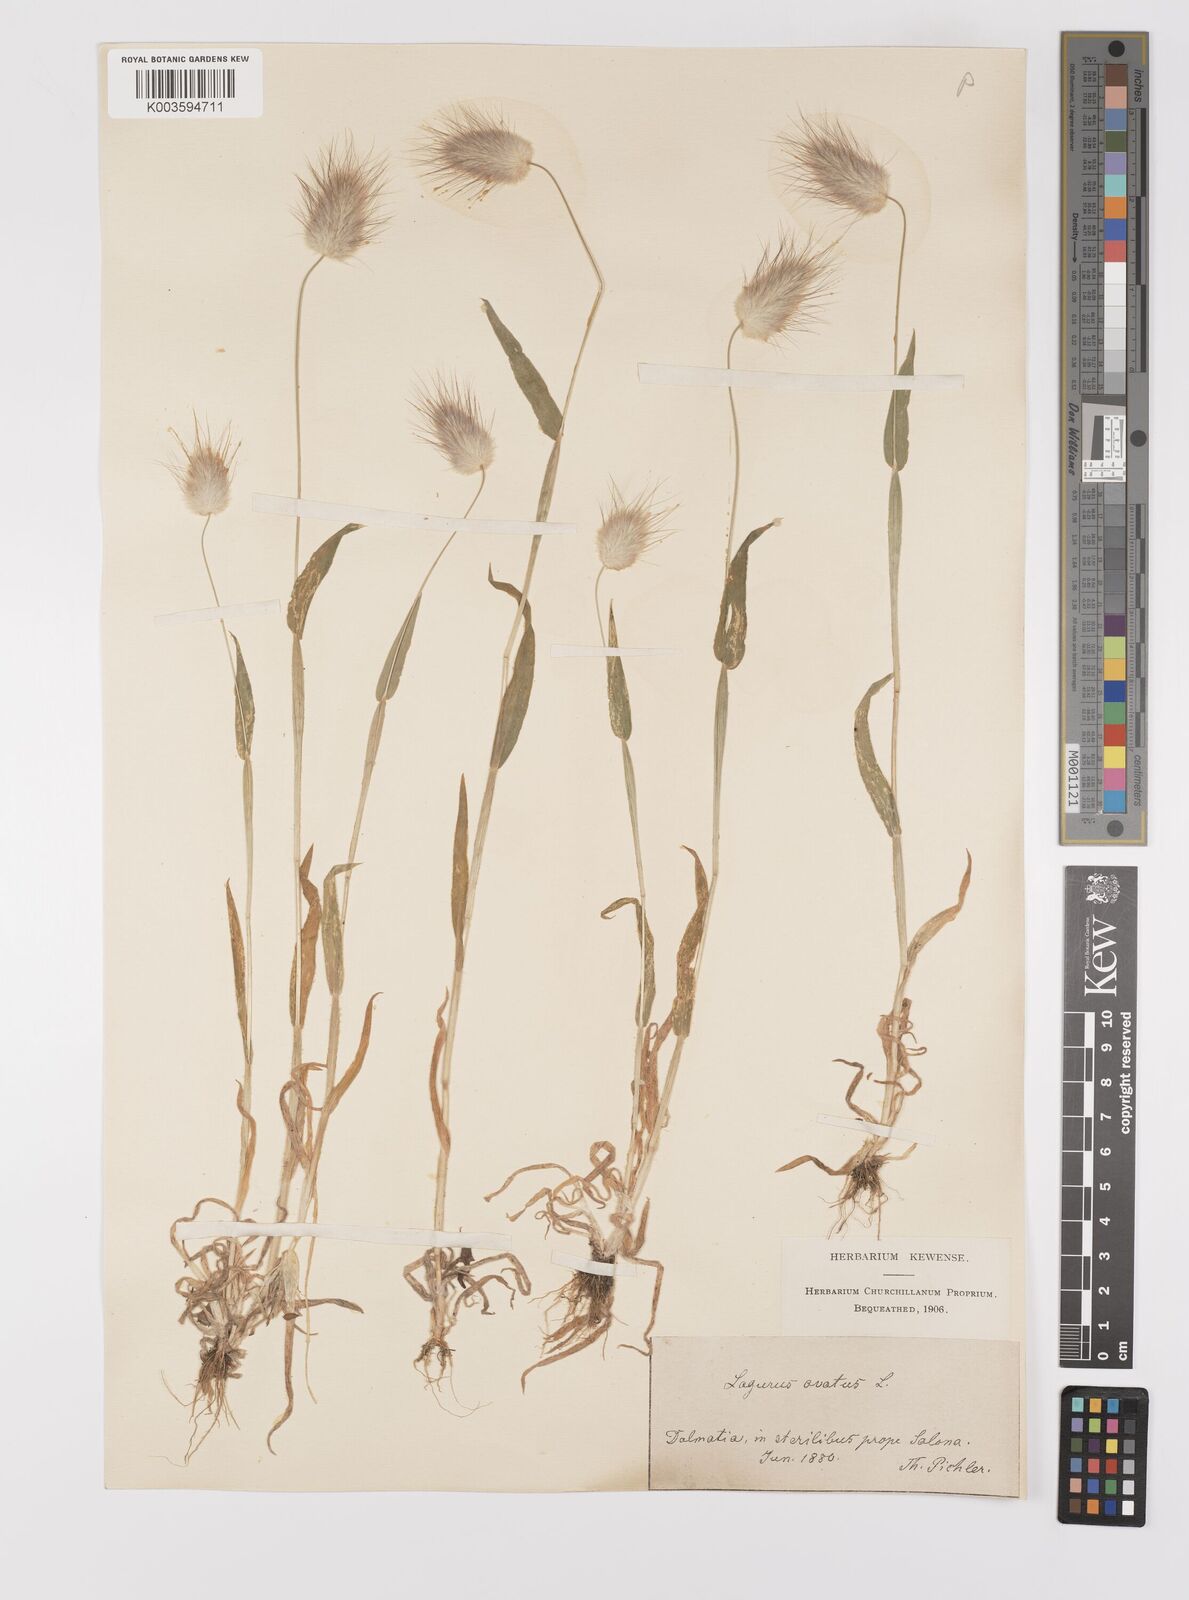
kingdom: Plantae
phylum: Tracheophyta
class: Liliopsida
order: Poales
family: Poaceae
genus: Lagurus
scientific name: Lagurus ovatus
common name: Hare's-tail
